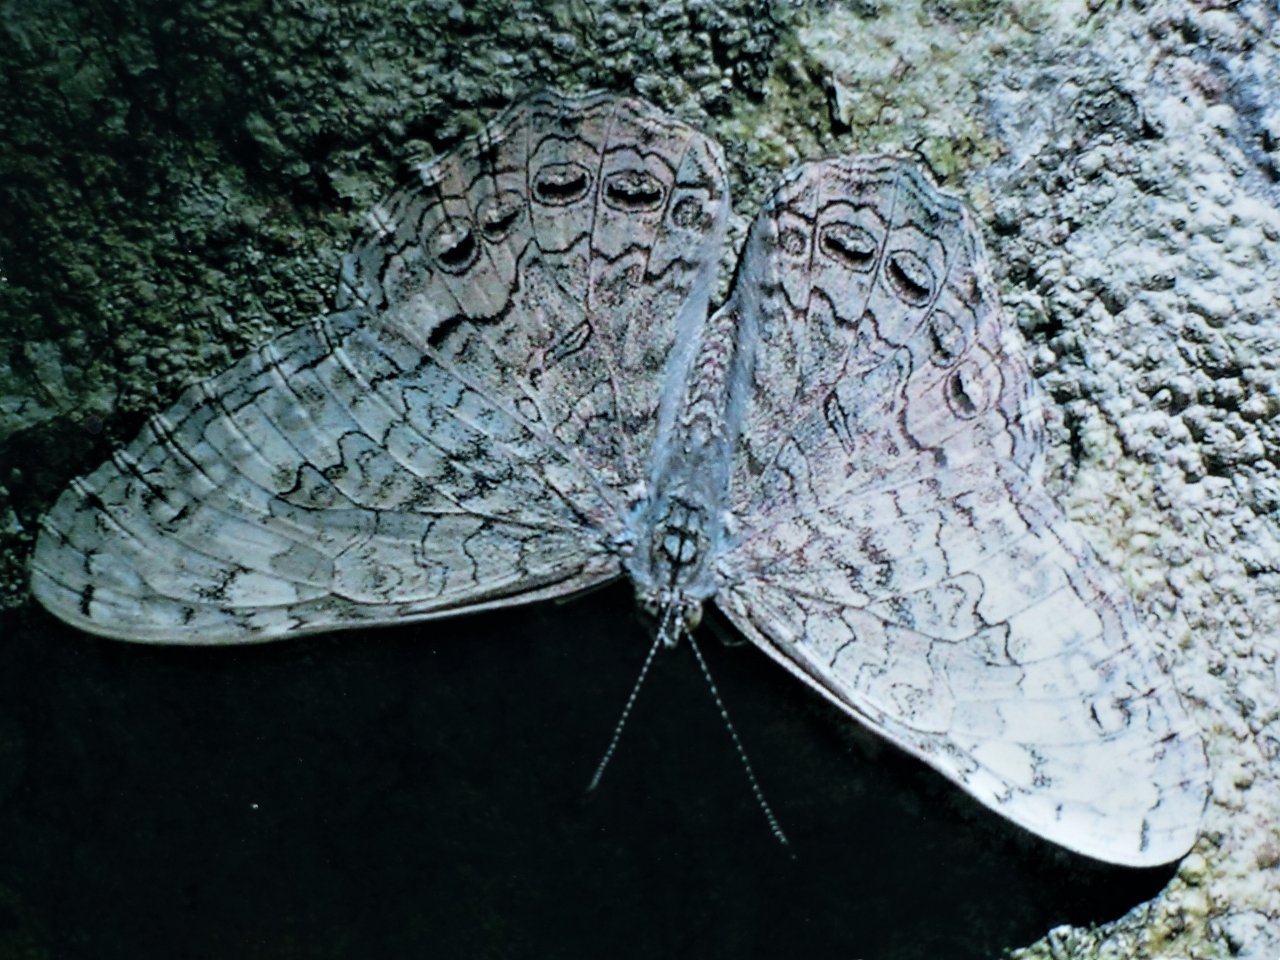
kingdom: Animalia
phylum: Arthropoda
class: Insecta
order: Lepidoptera
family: Nymphalidae
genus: Hamadryas
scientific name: Hamadryas glauconome
